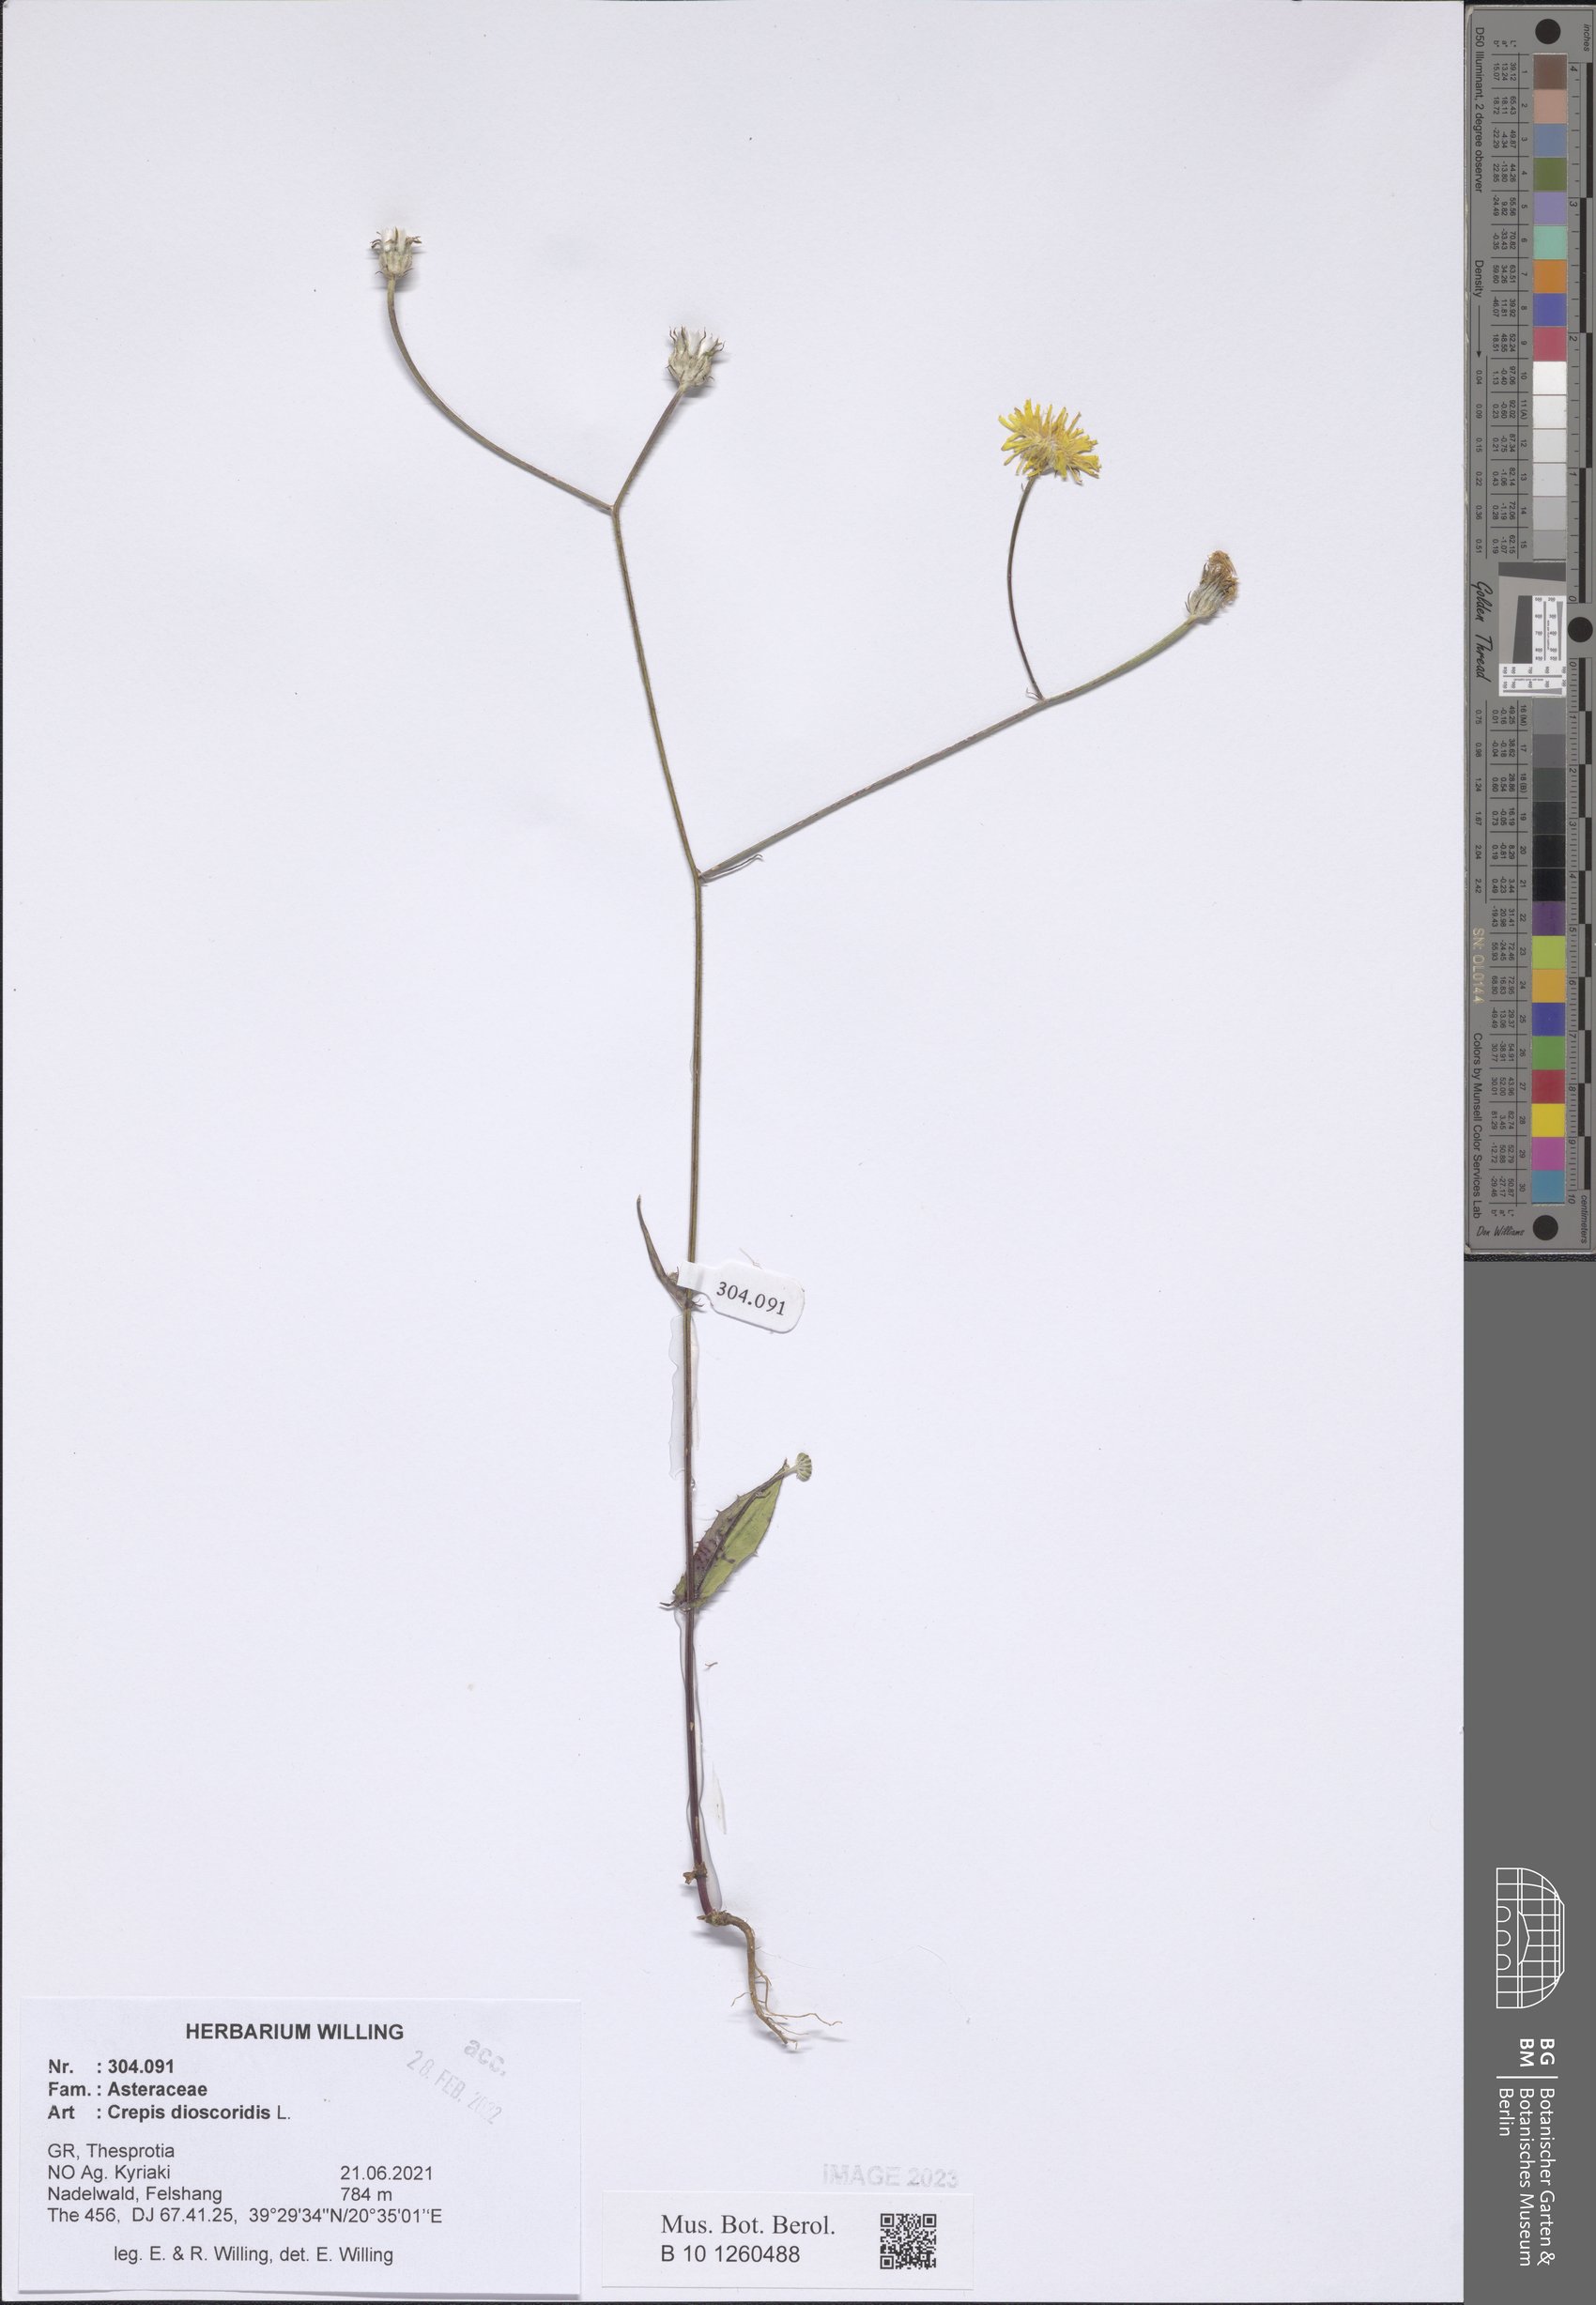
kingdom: Plantae
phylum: Tracheophyta
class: Magnoliopsida
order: Asterales
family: Asteraceae
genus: Crepis
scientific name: Crepis dioscoridis
